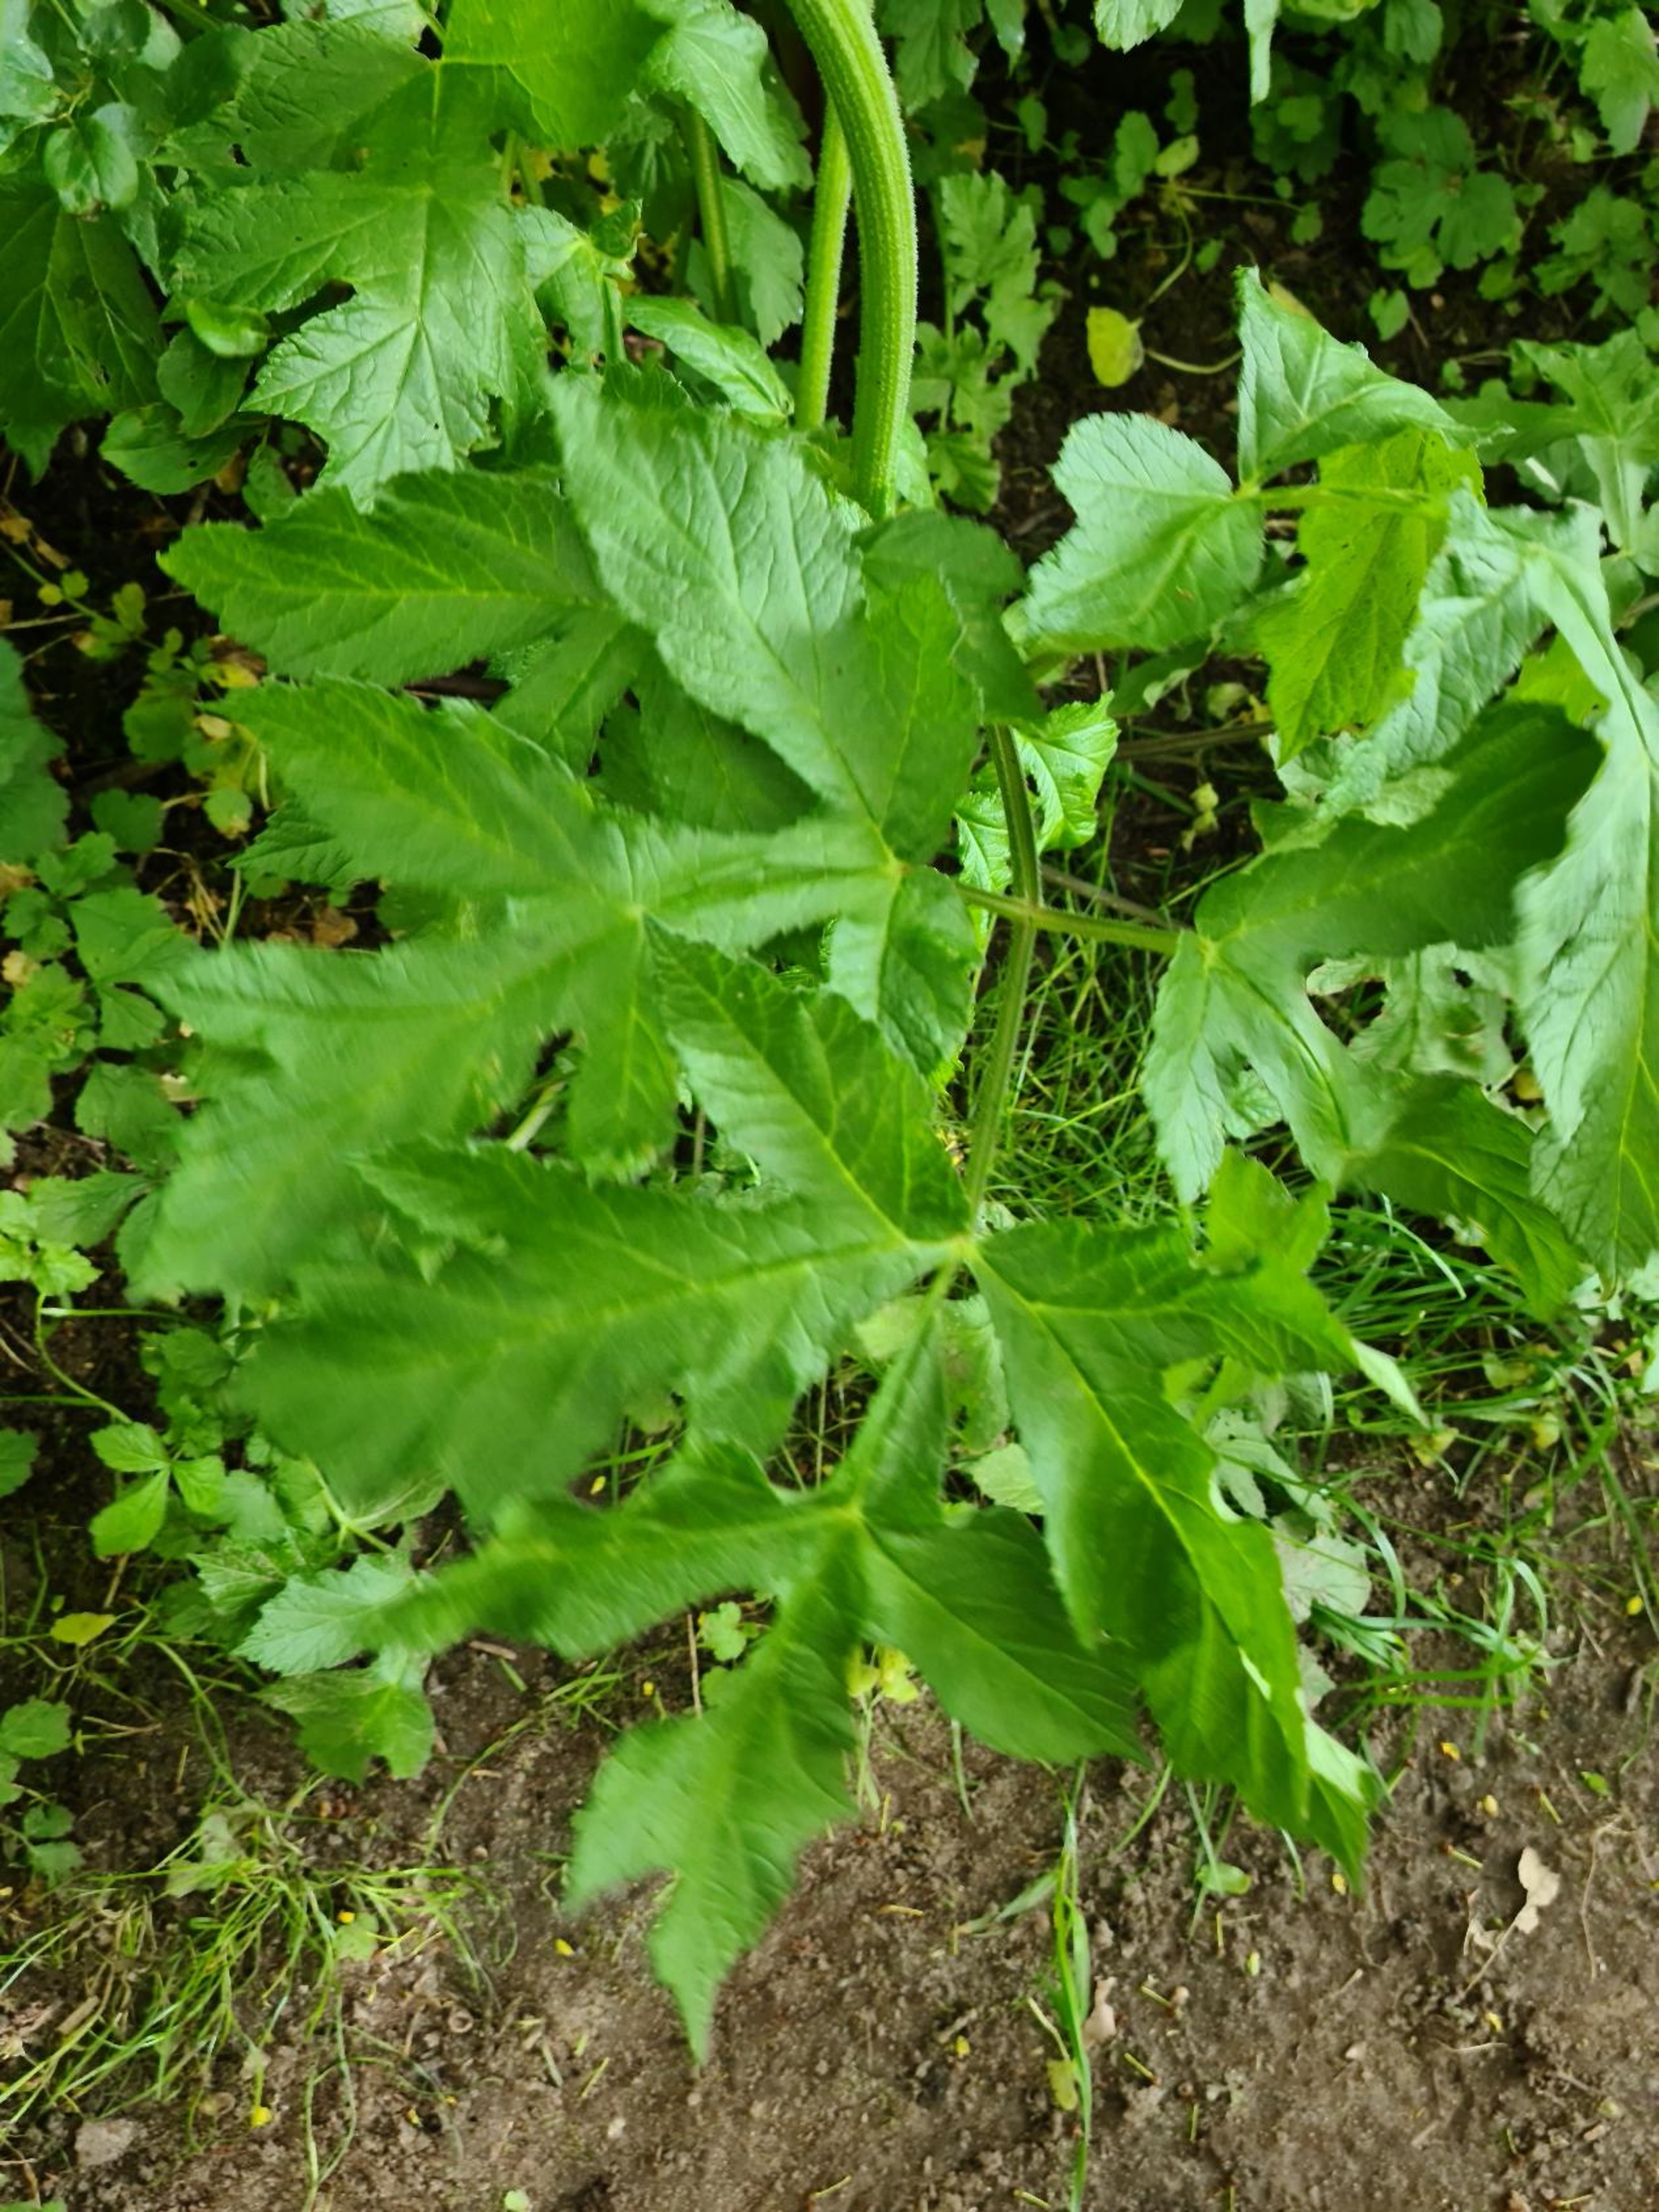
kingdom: Plantae
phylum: Tracheophyta
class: Magnoliopsida
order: Apiales
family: Apiaceae
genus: Heracleum
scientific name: Heracleum sphondylium
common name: Almindelig bjørneklo
